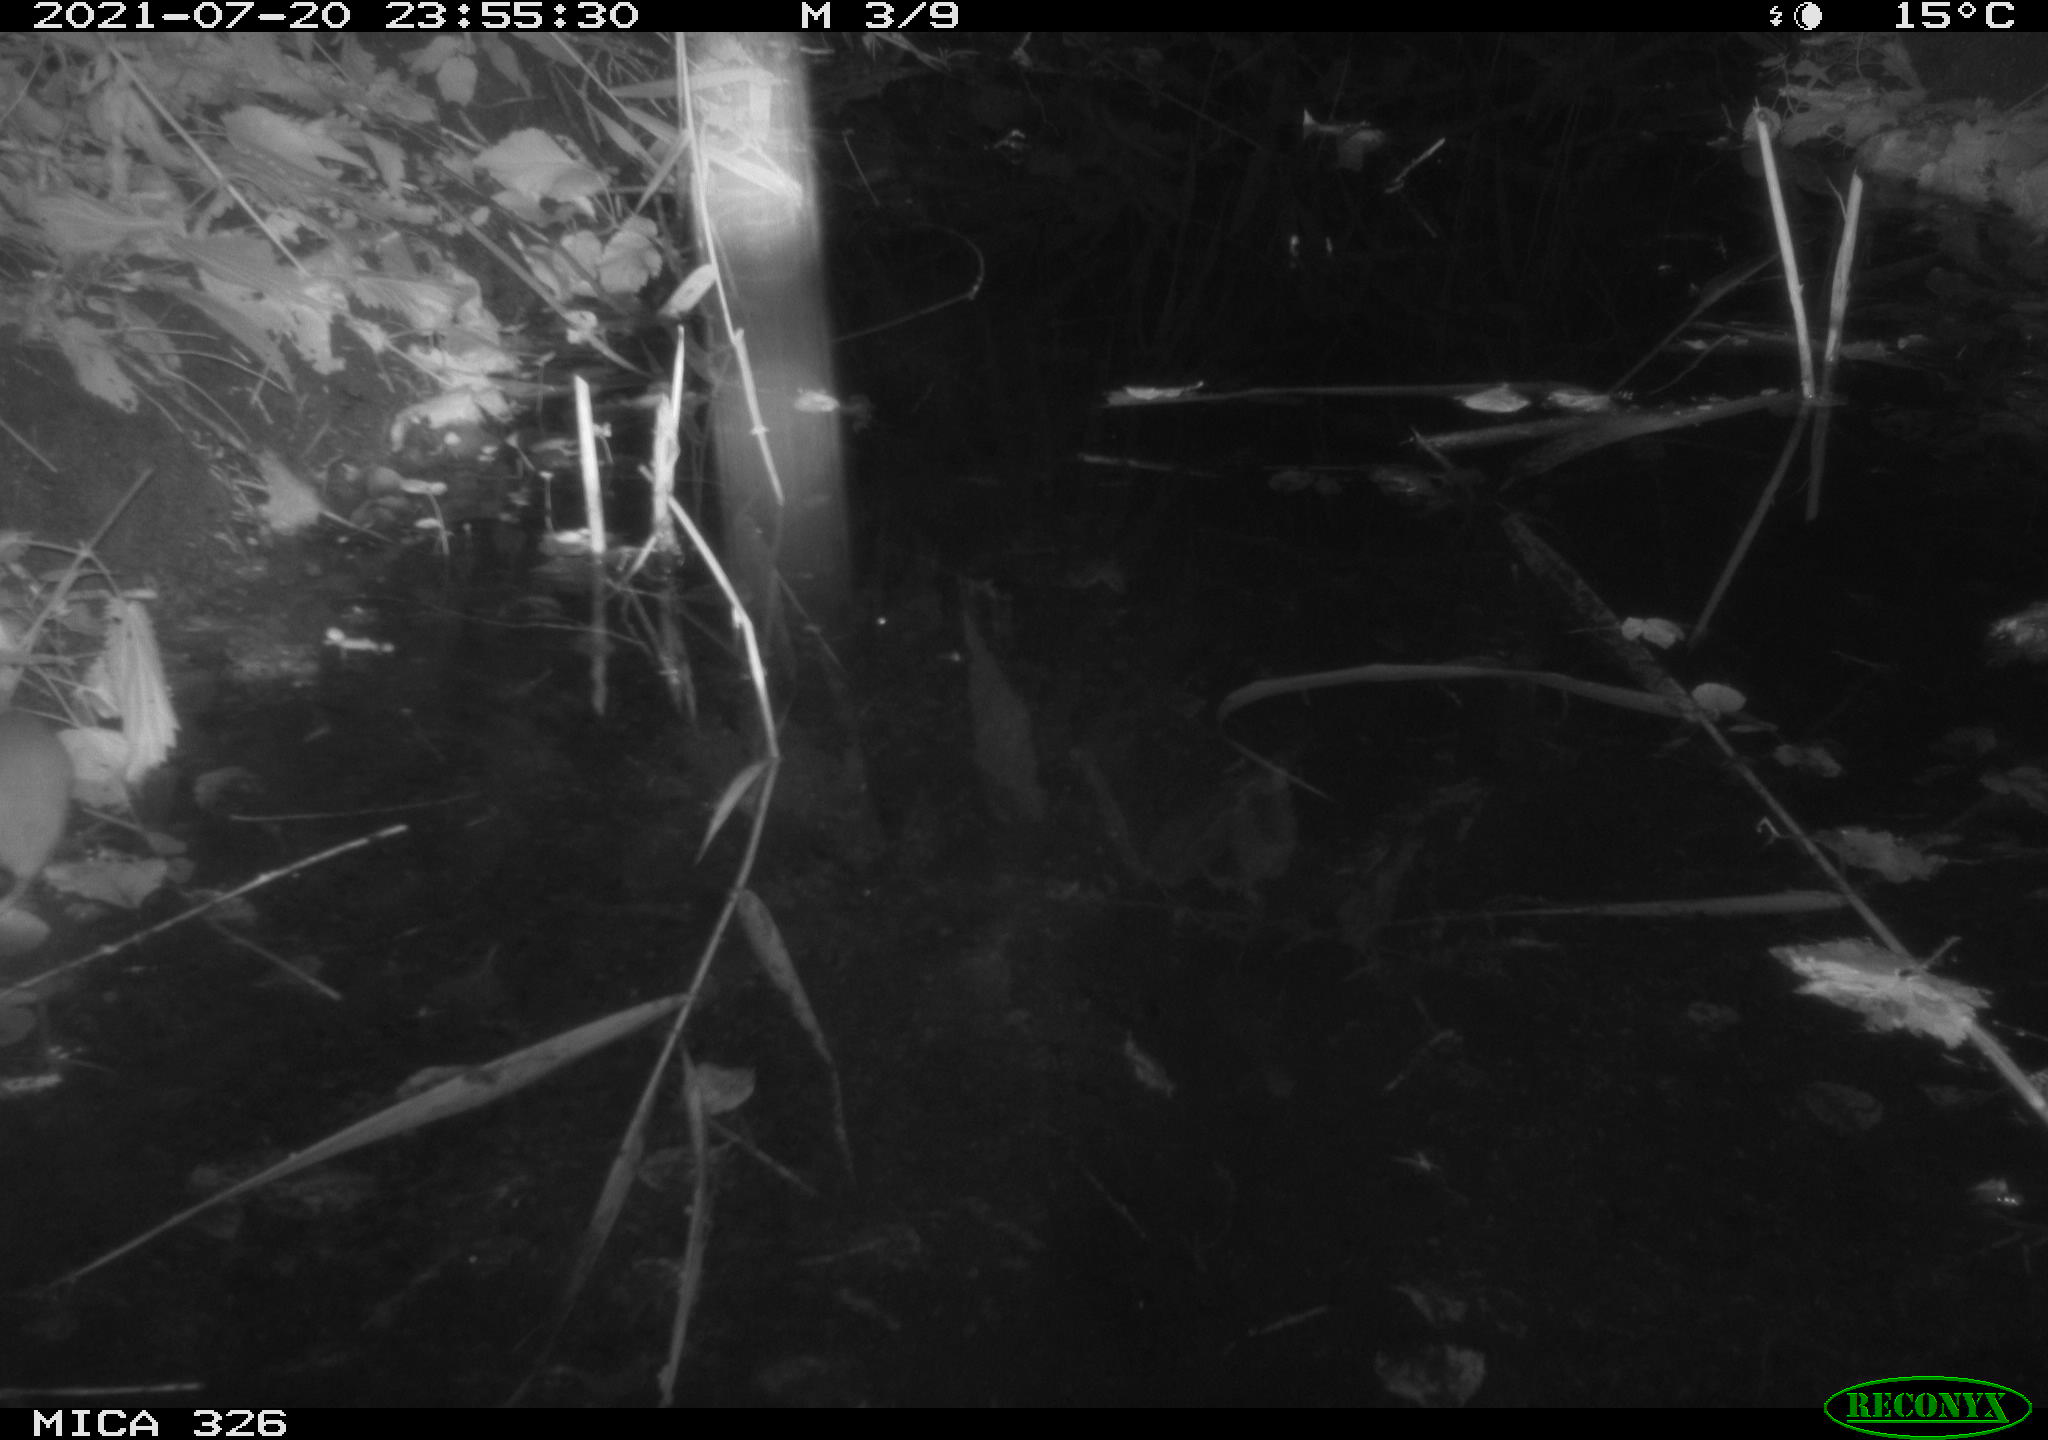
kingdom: Animalia
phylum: Chordata
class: Mammalia
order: Rodentia
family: Muridae
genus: Rattus
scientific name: Rattus norvegicus
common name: Brown rat
